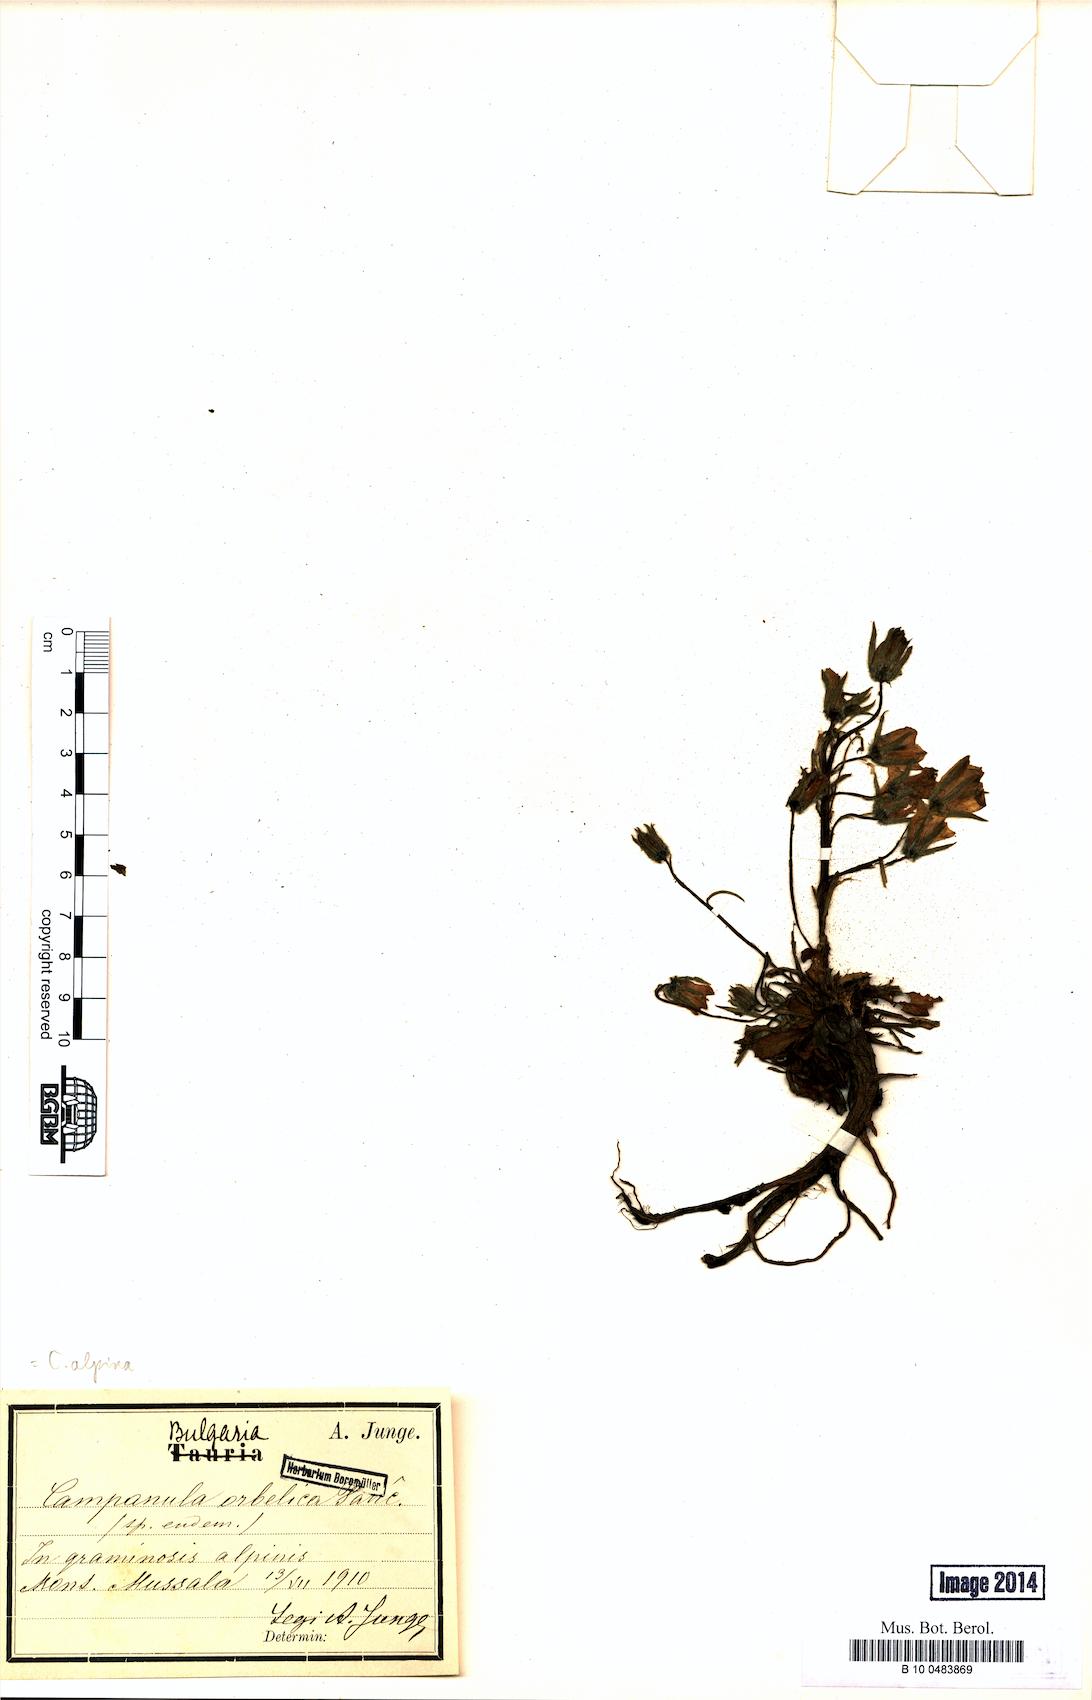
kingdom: Plantae
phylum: Tracheophyta
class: Magnoliopsida
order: Asterales
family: Campanulaceae
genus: Campanula
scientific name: Campanula alpina
